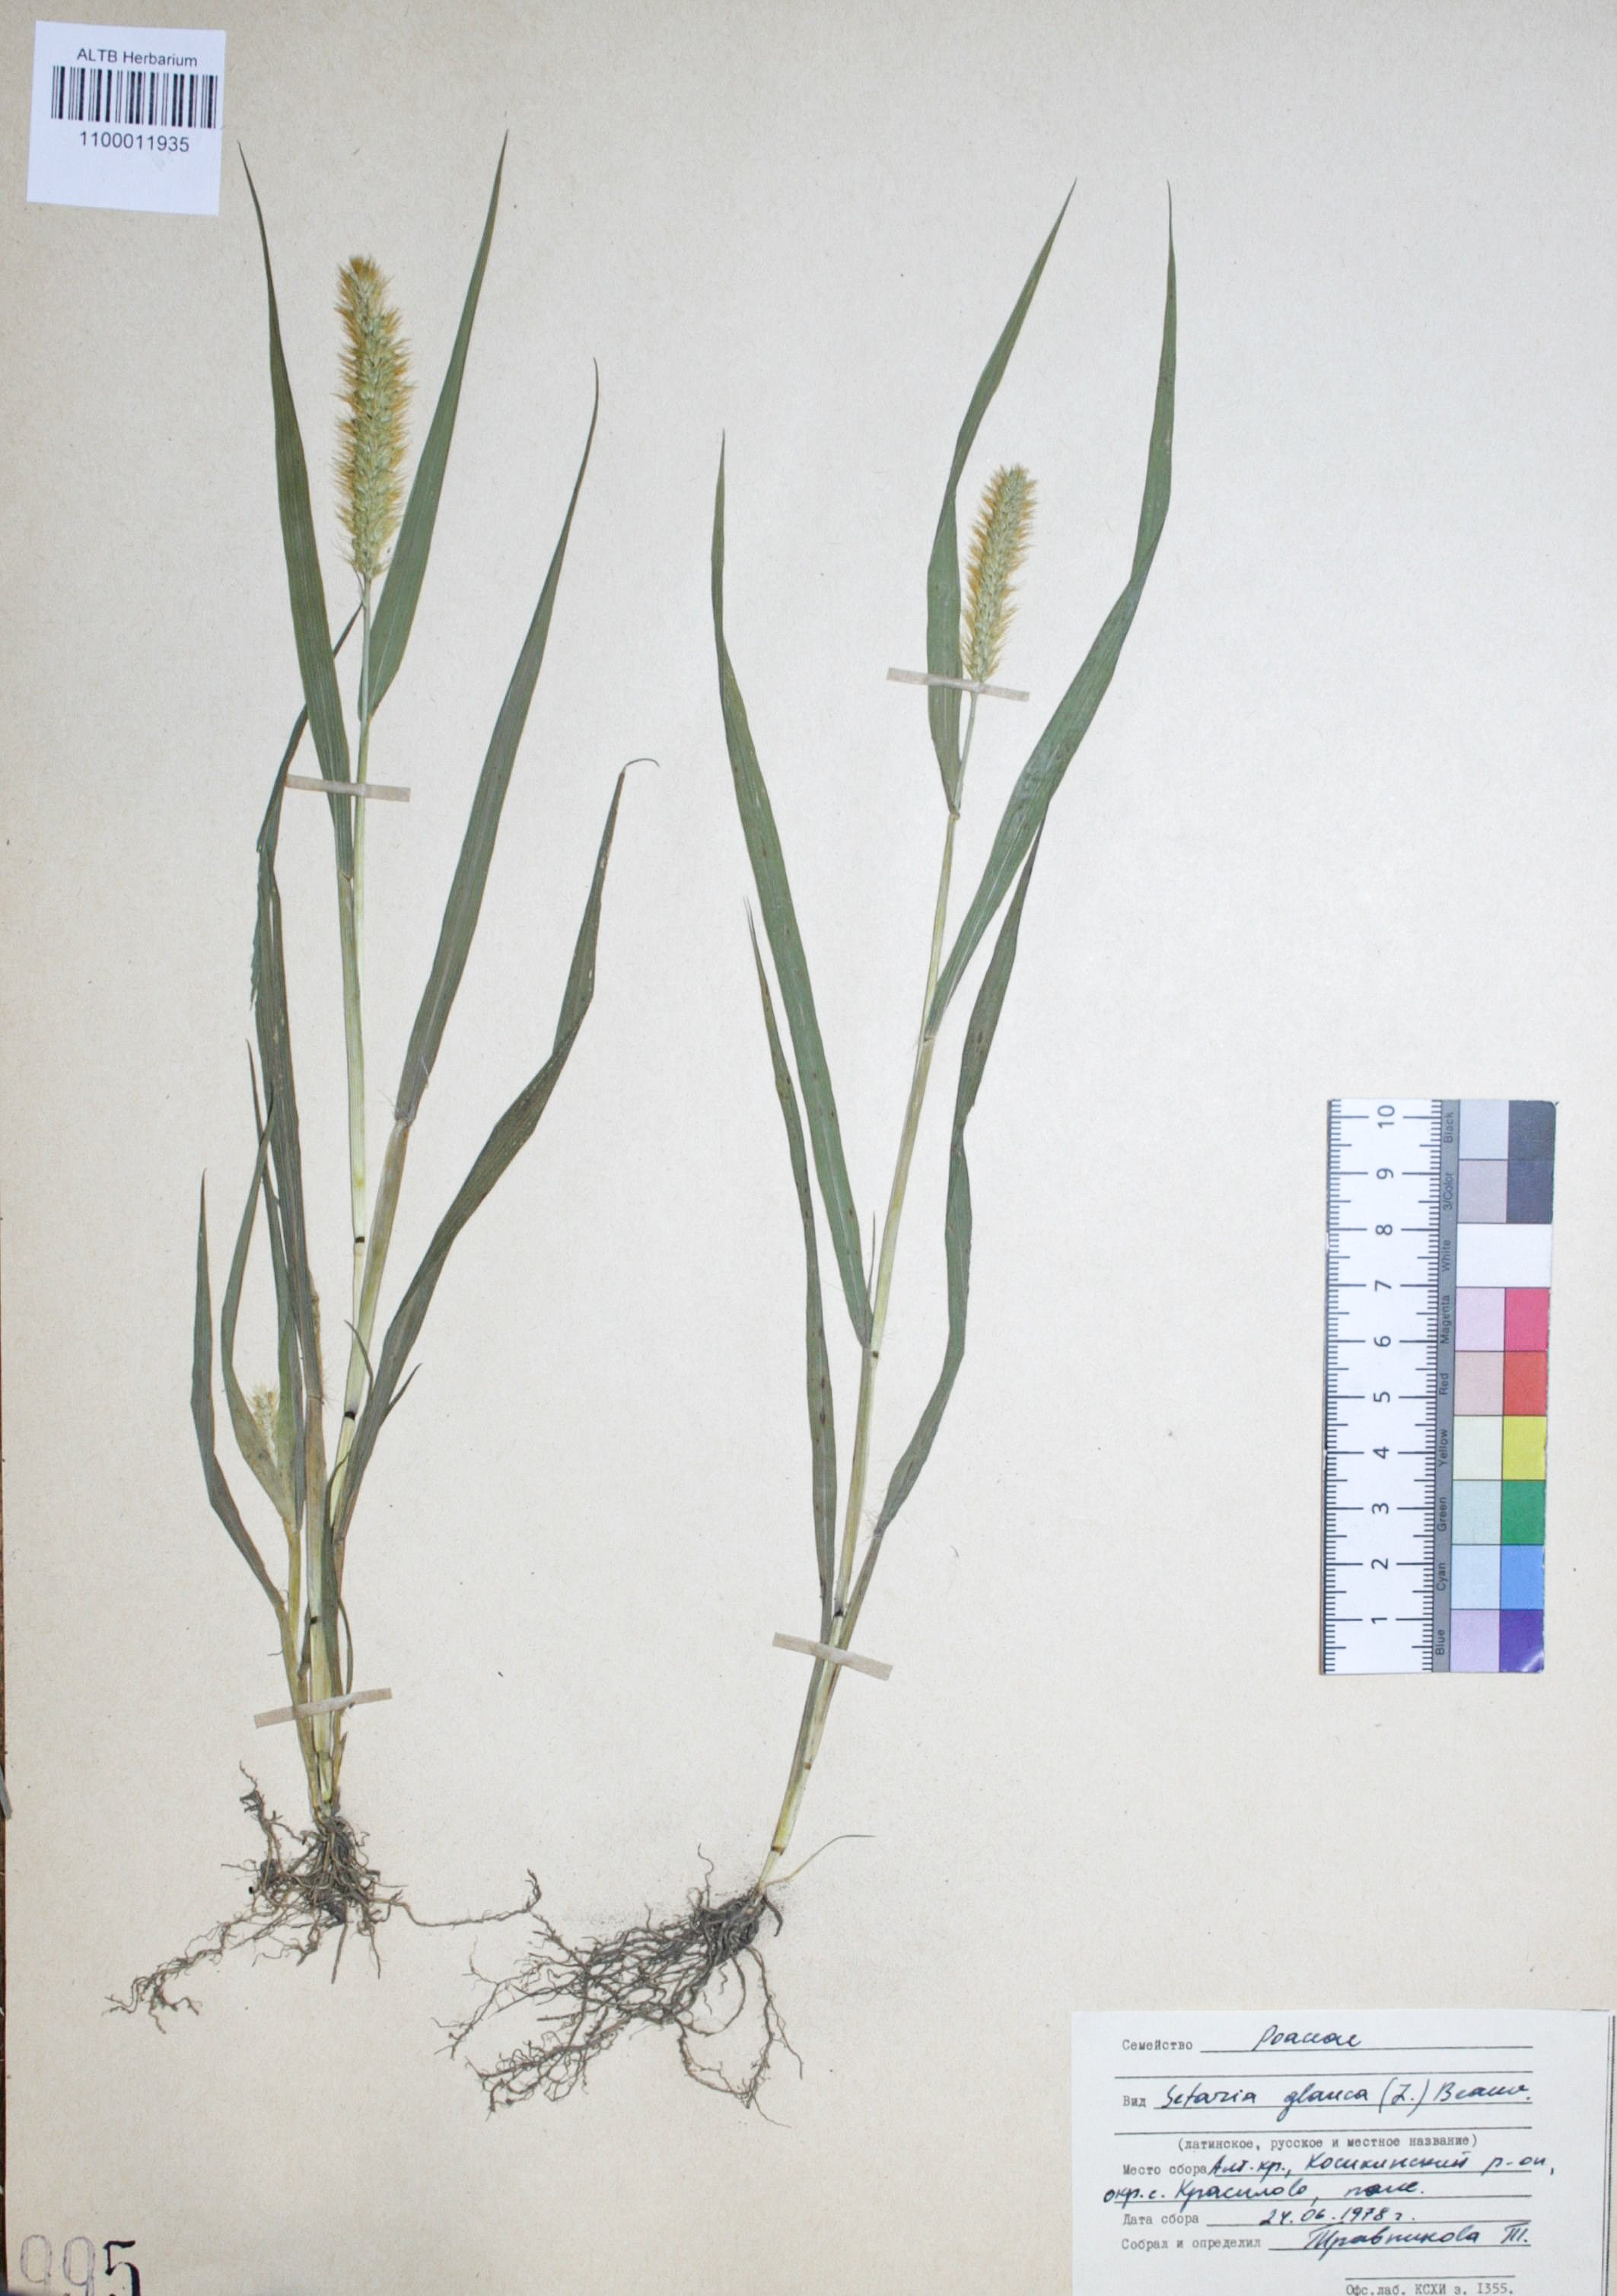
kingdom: Plantae
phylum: Tracheophyta
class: Liliopsida
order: Poales
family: Poaceae
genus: Setaria
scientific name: Setaria pumila
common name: Yellow bristle-grass
